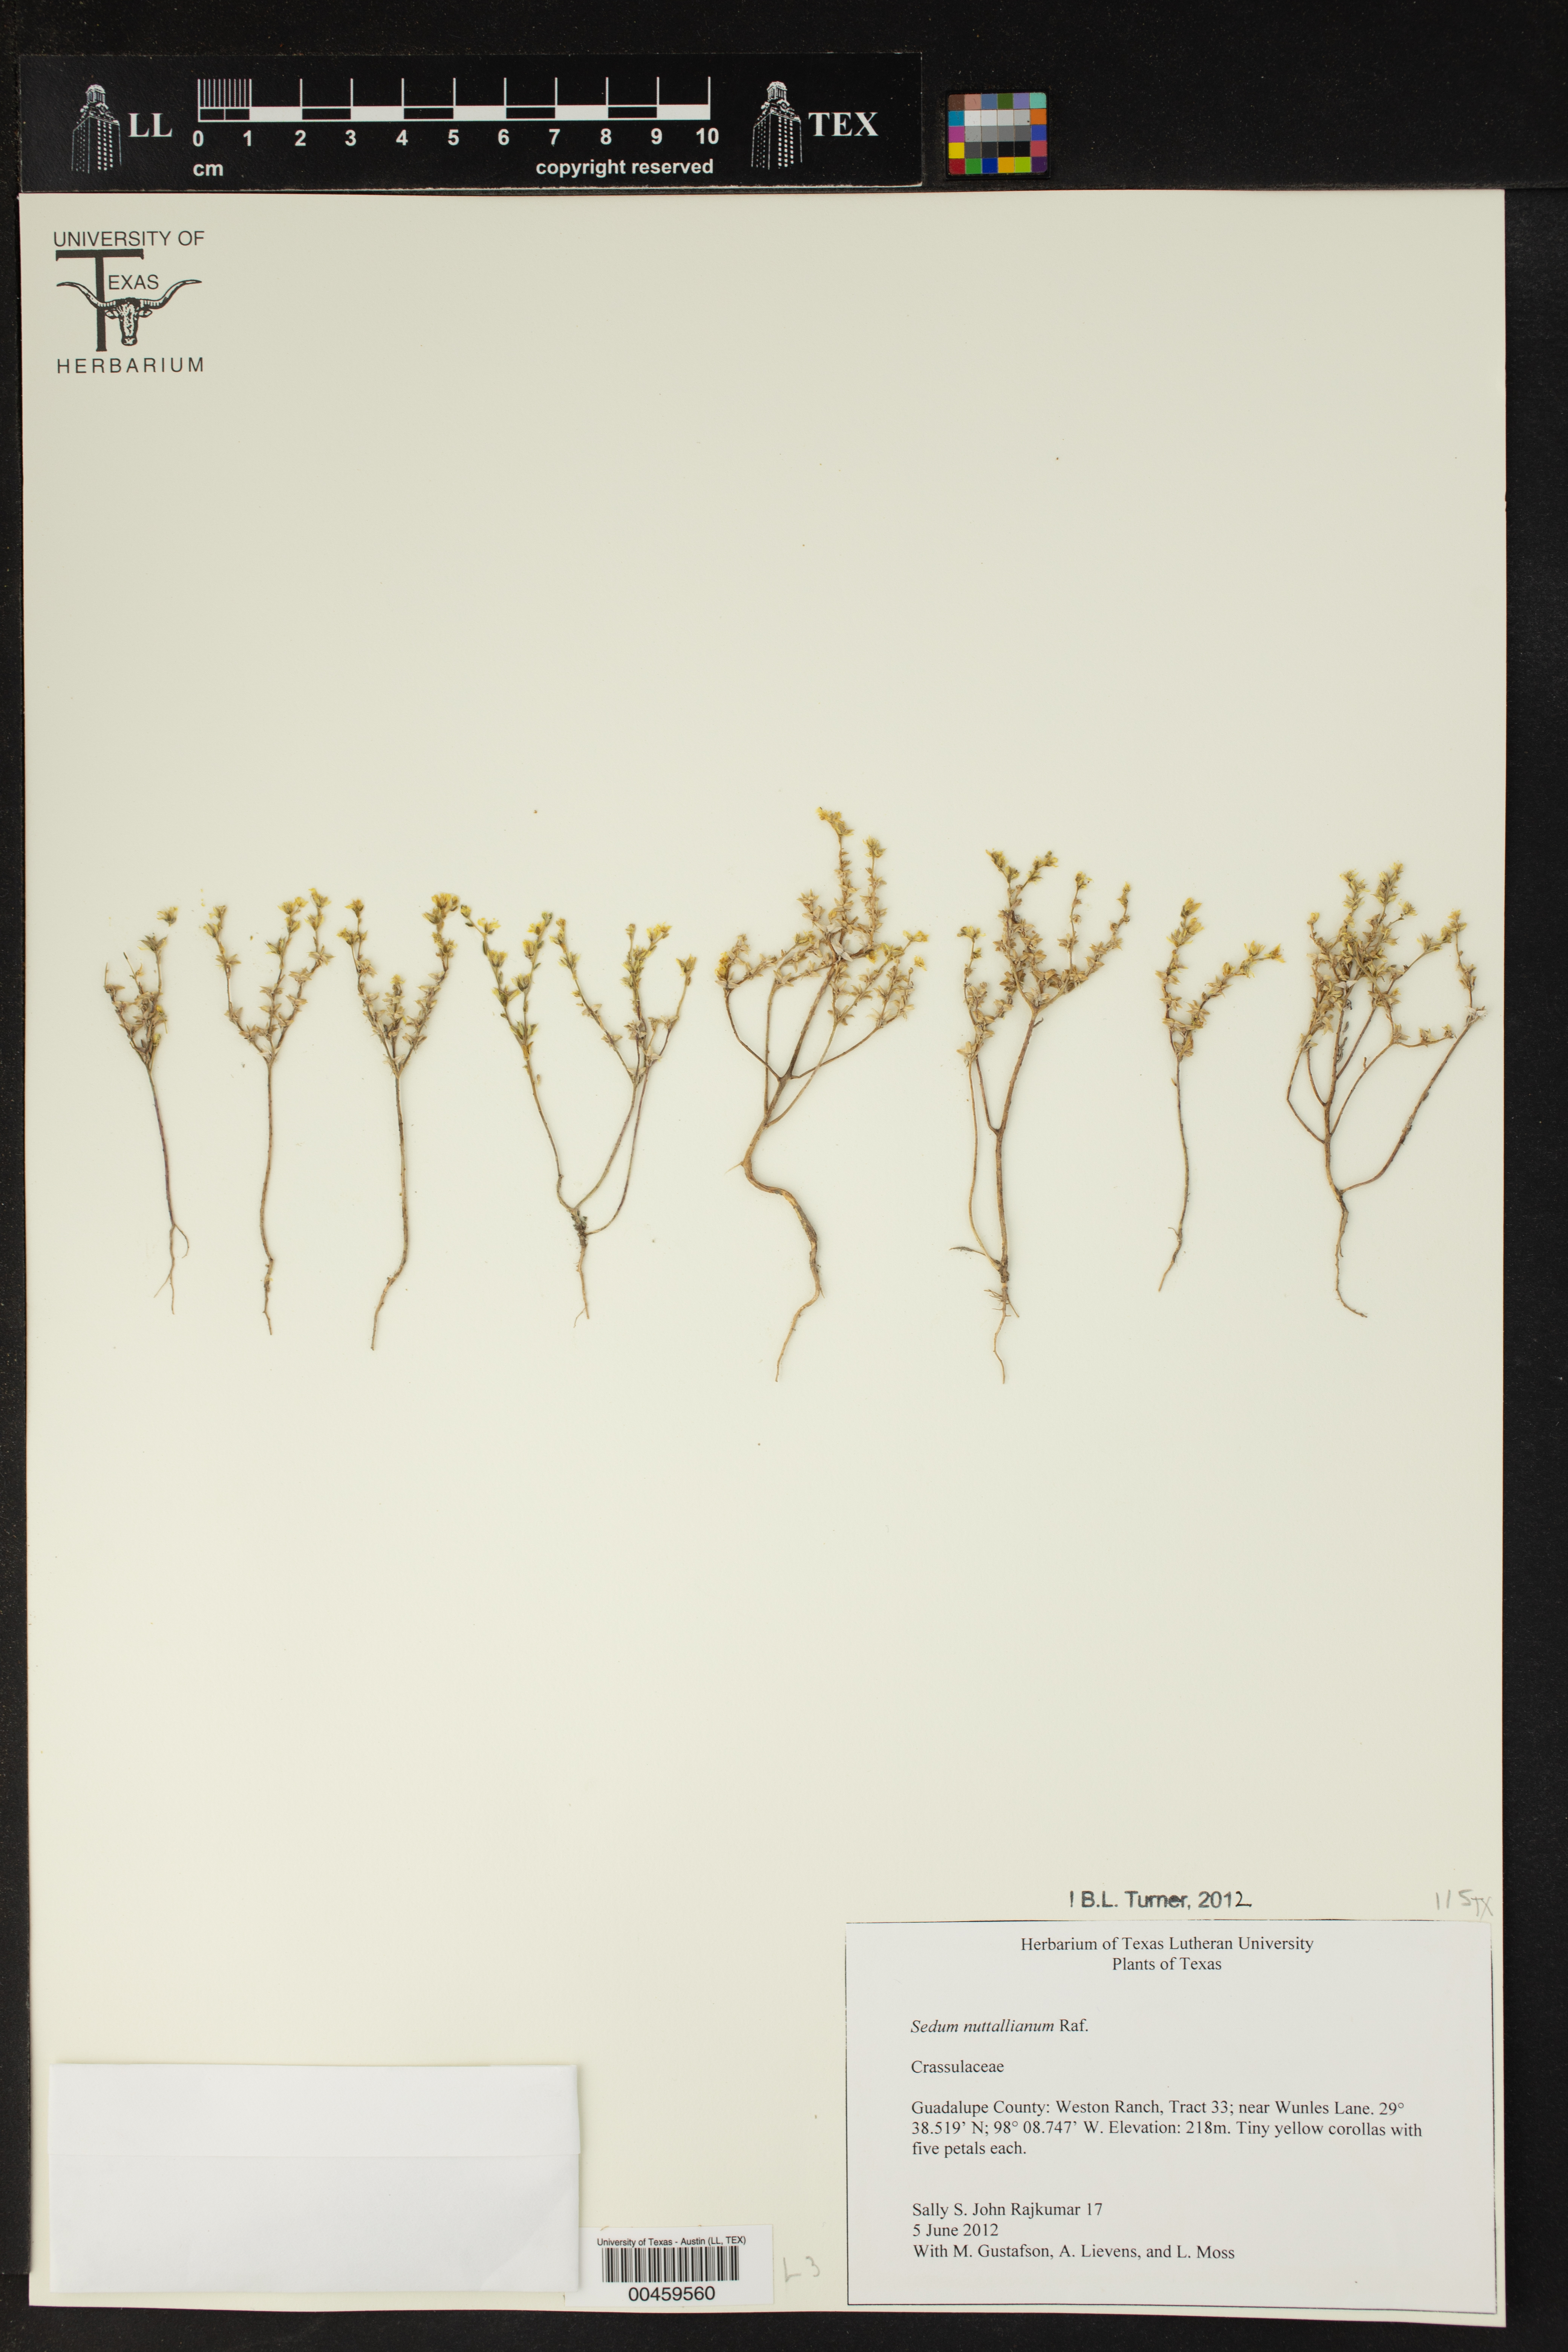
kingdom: Plantae
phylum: Tracheophyta
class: Magnoliopsida
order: Saxifragales
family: Crassulaceae
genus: Sedum
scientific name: Sedum nuttallii
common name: Yellow stonecrop
